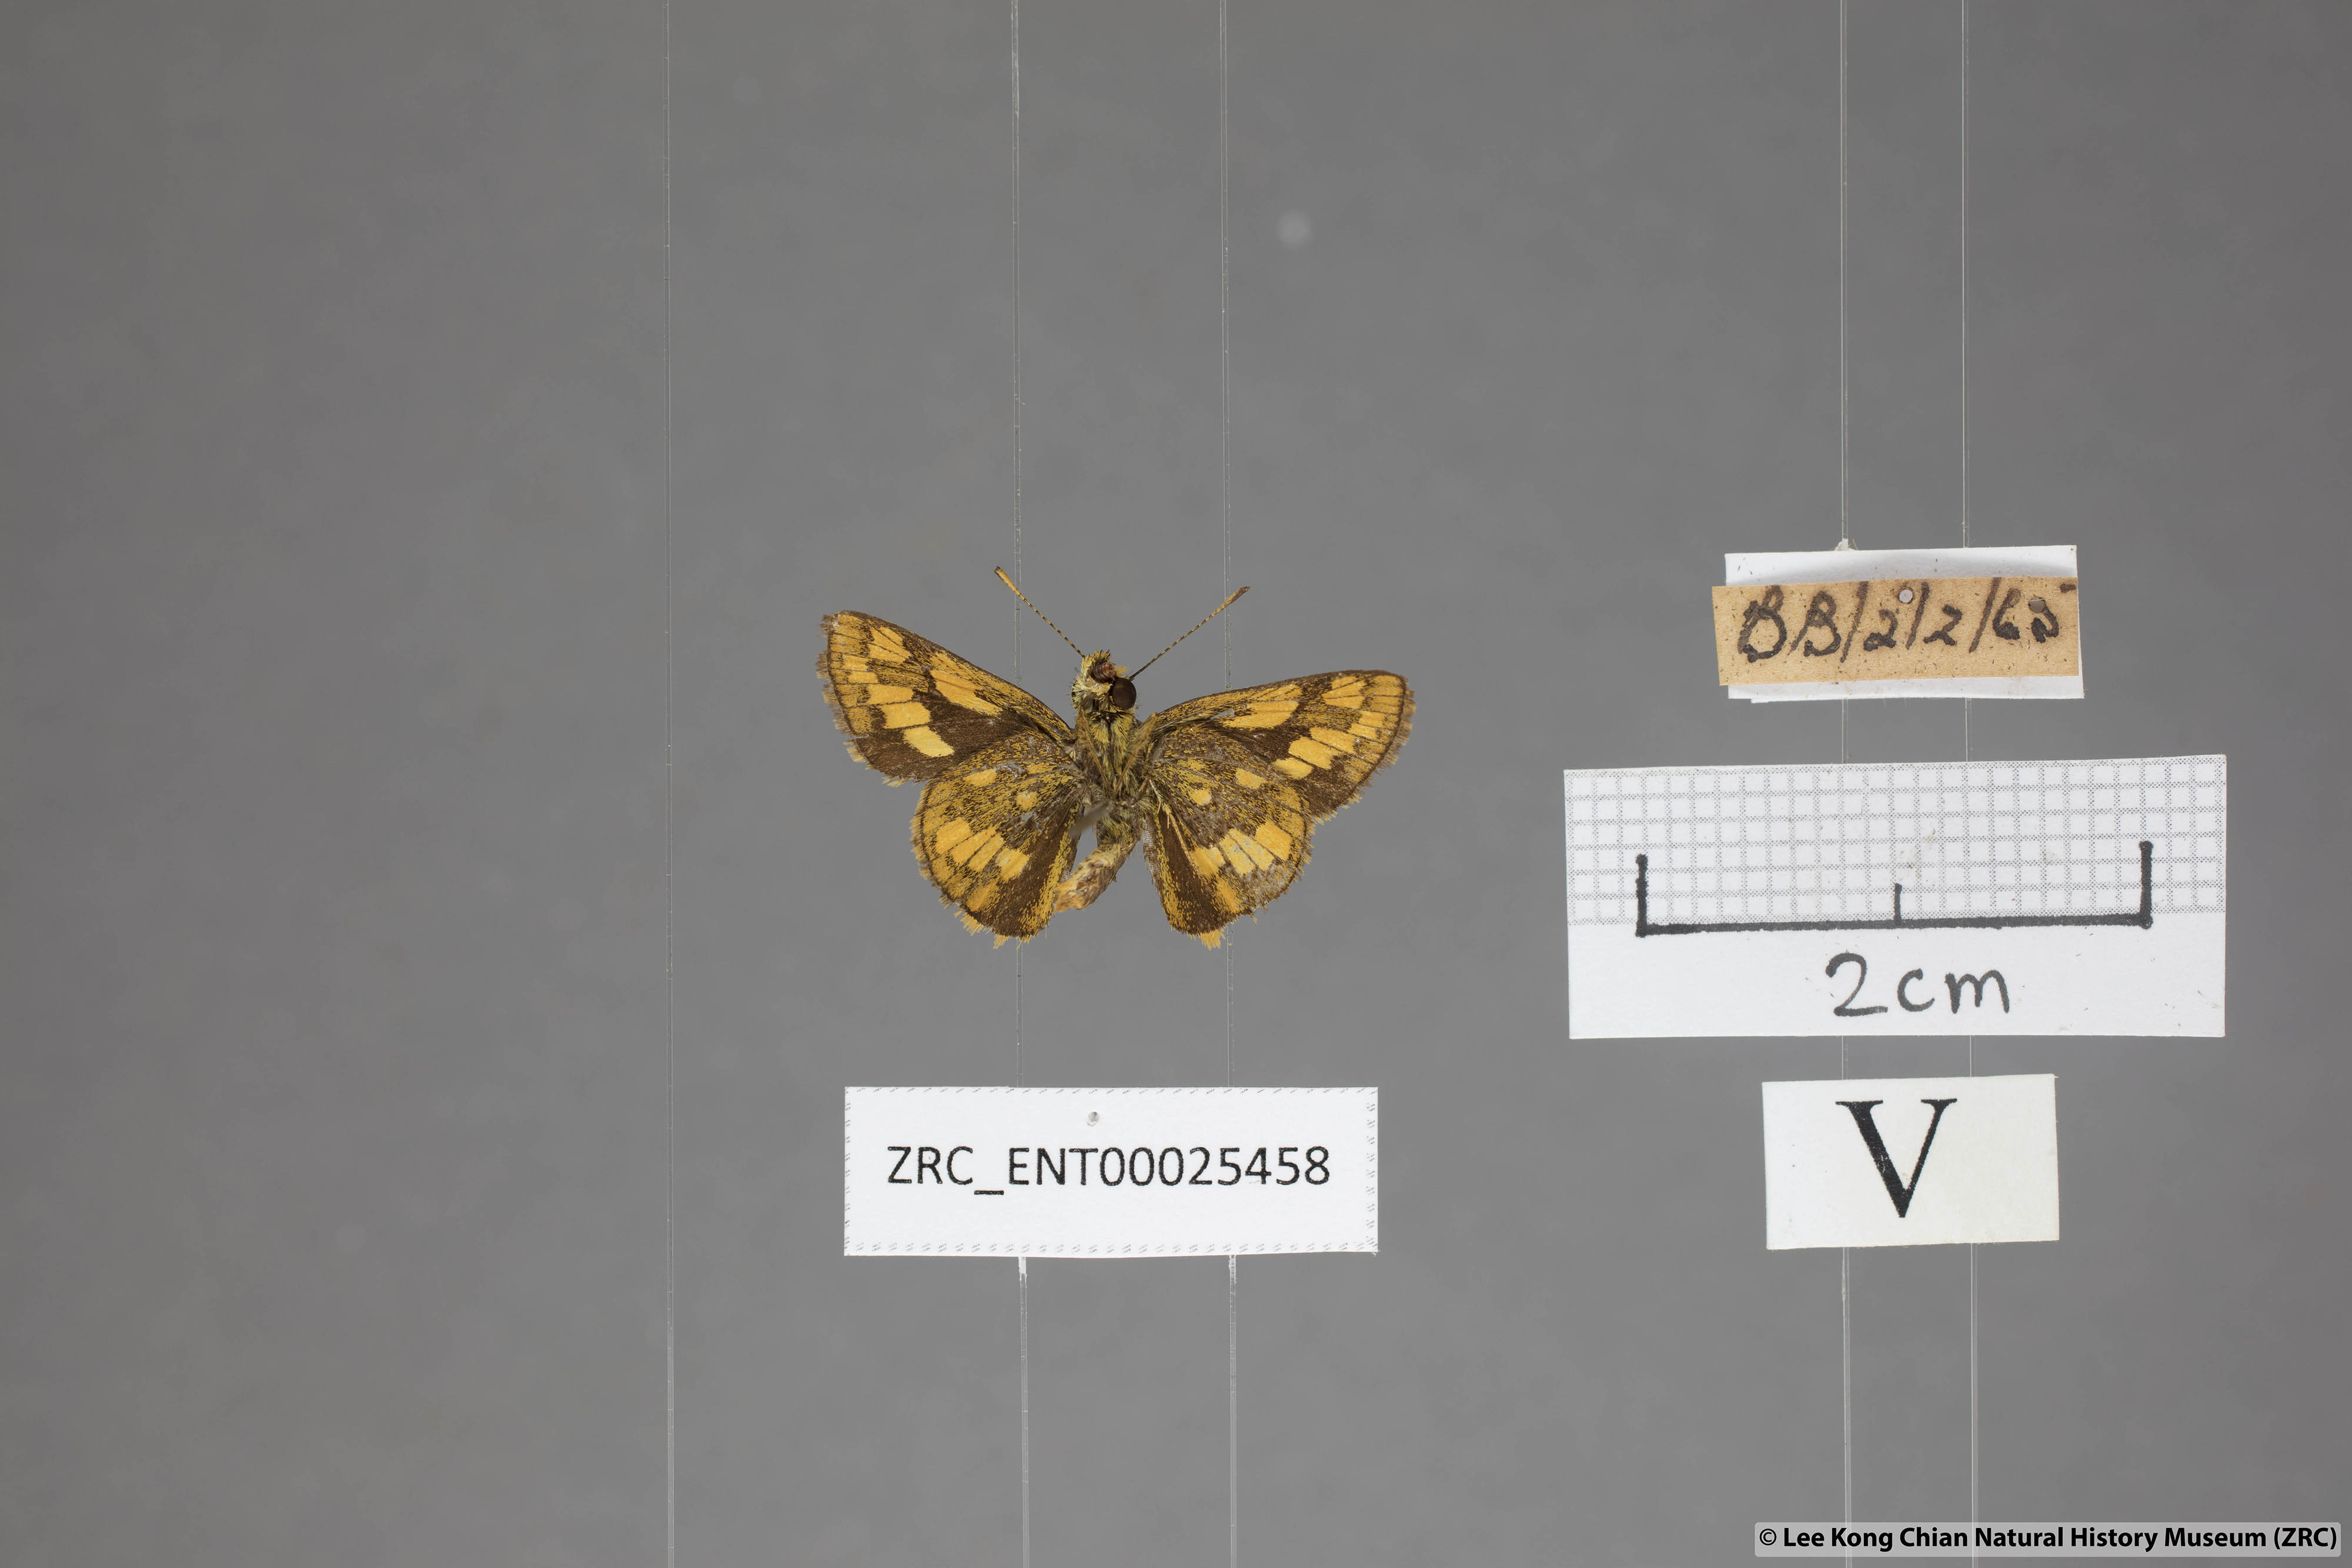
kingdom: Animalia
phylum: Arthropoda
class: Insecta
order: Lepidoptera
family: Hesperiidae
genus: Potanthus
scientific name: Potanthus omaha
